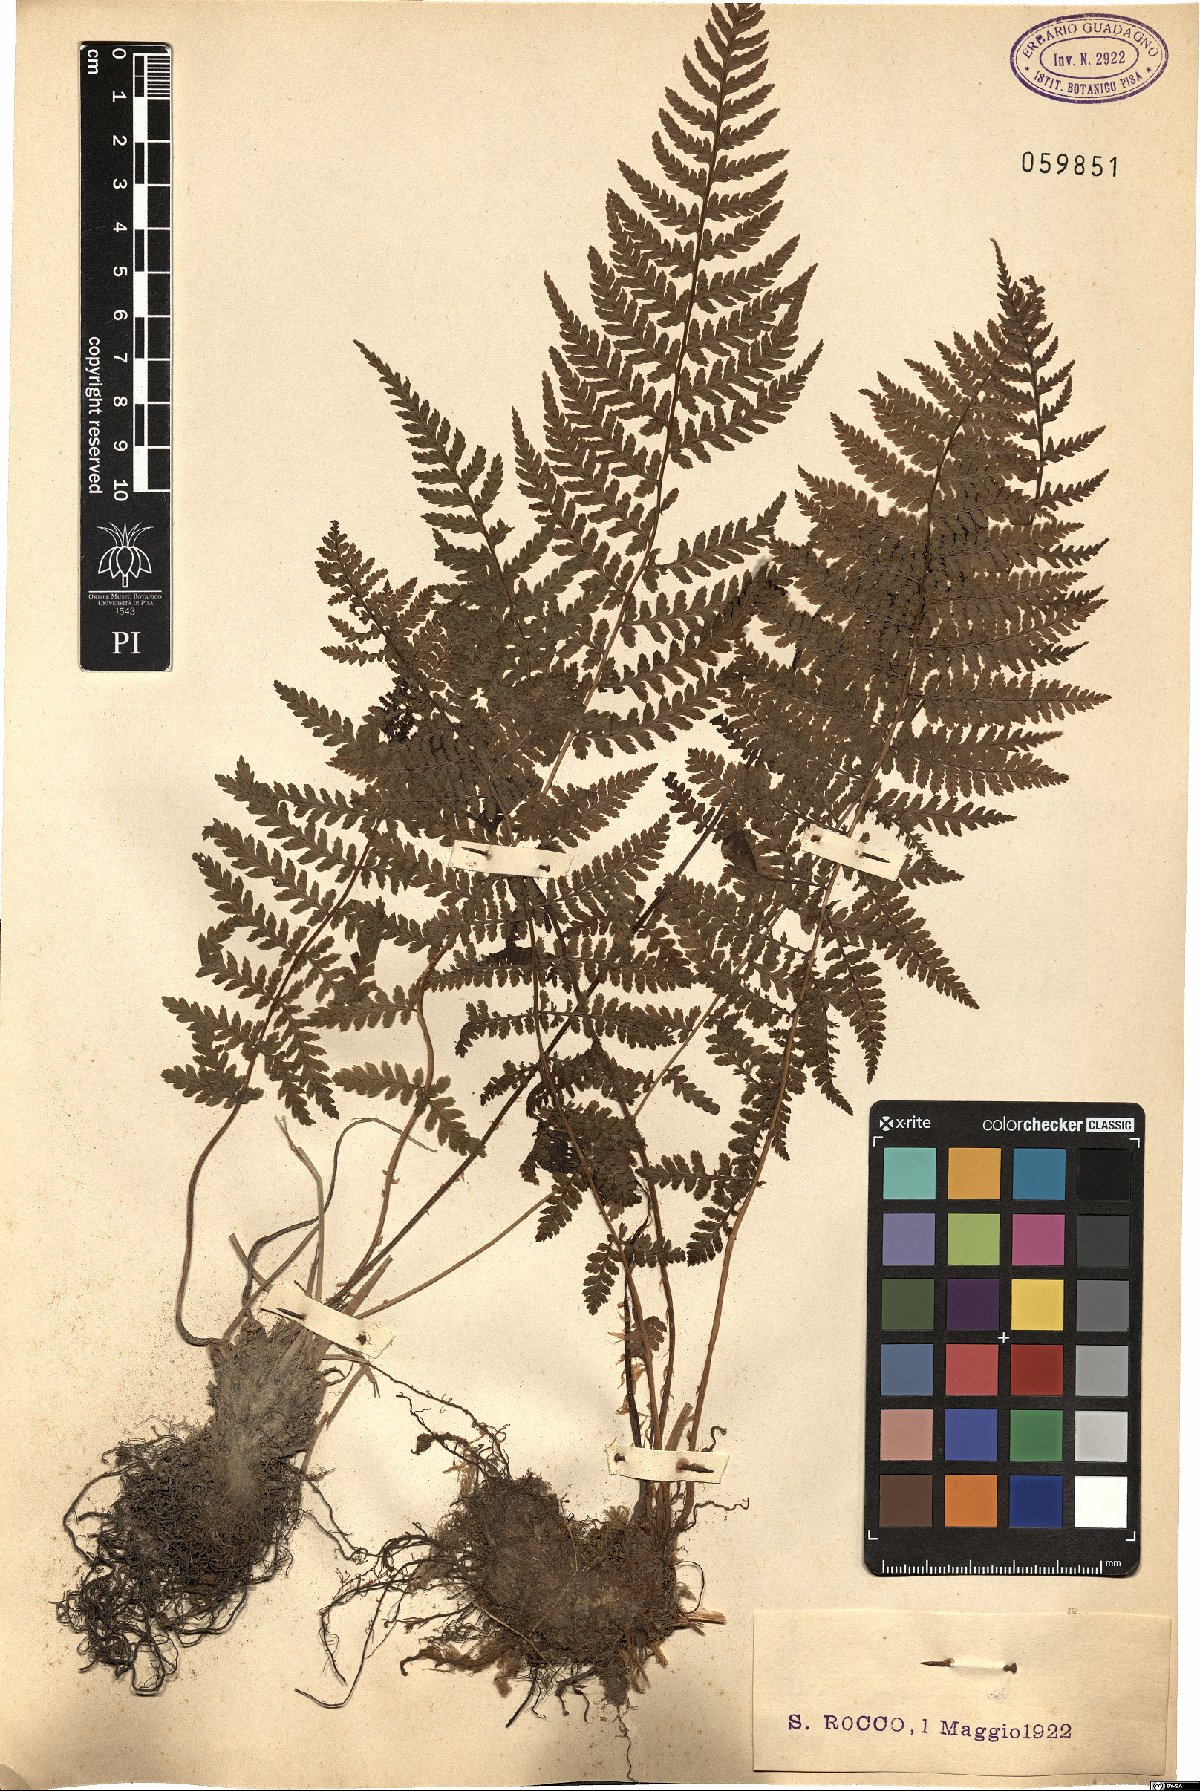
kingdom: Plantae
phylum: Tracheophyta
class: Polypodiopsida
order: Polypodiales
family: Athyriaceae
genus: Athyrium
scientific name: Athyrium filix-femina
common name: Lady fern
